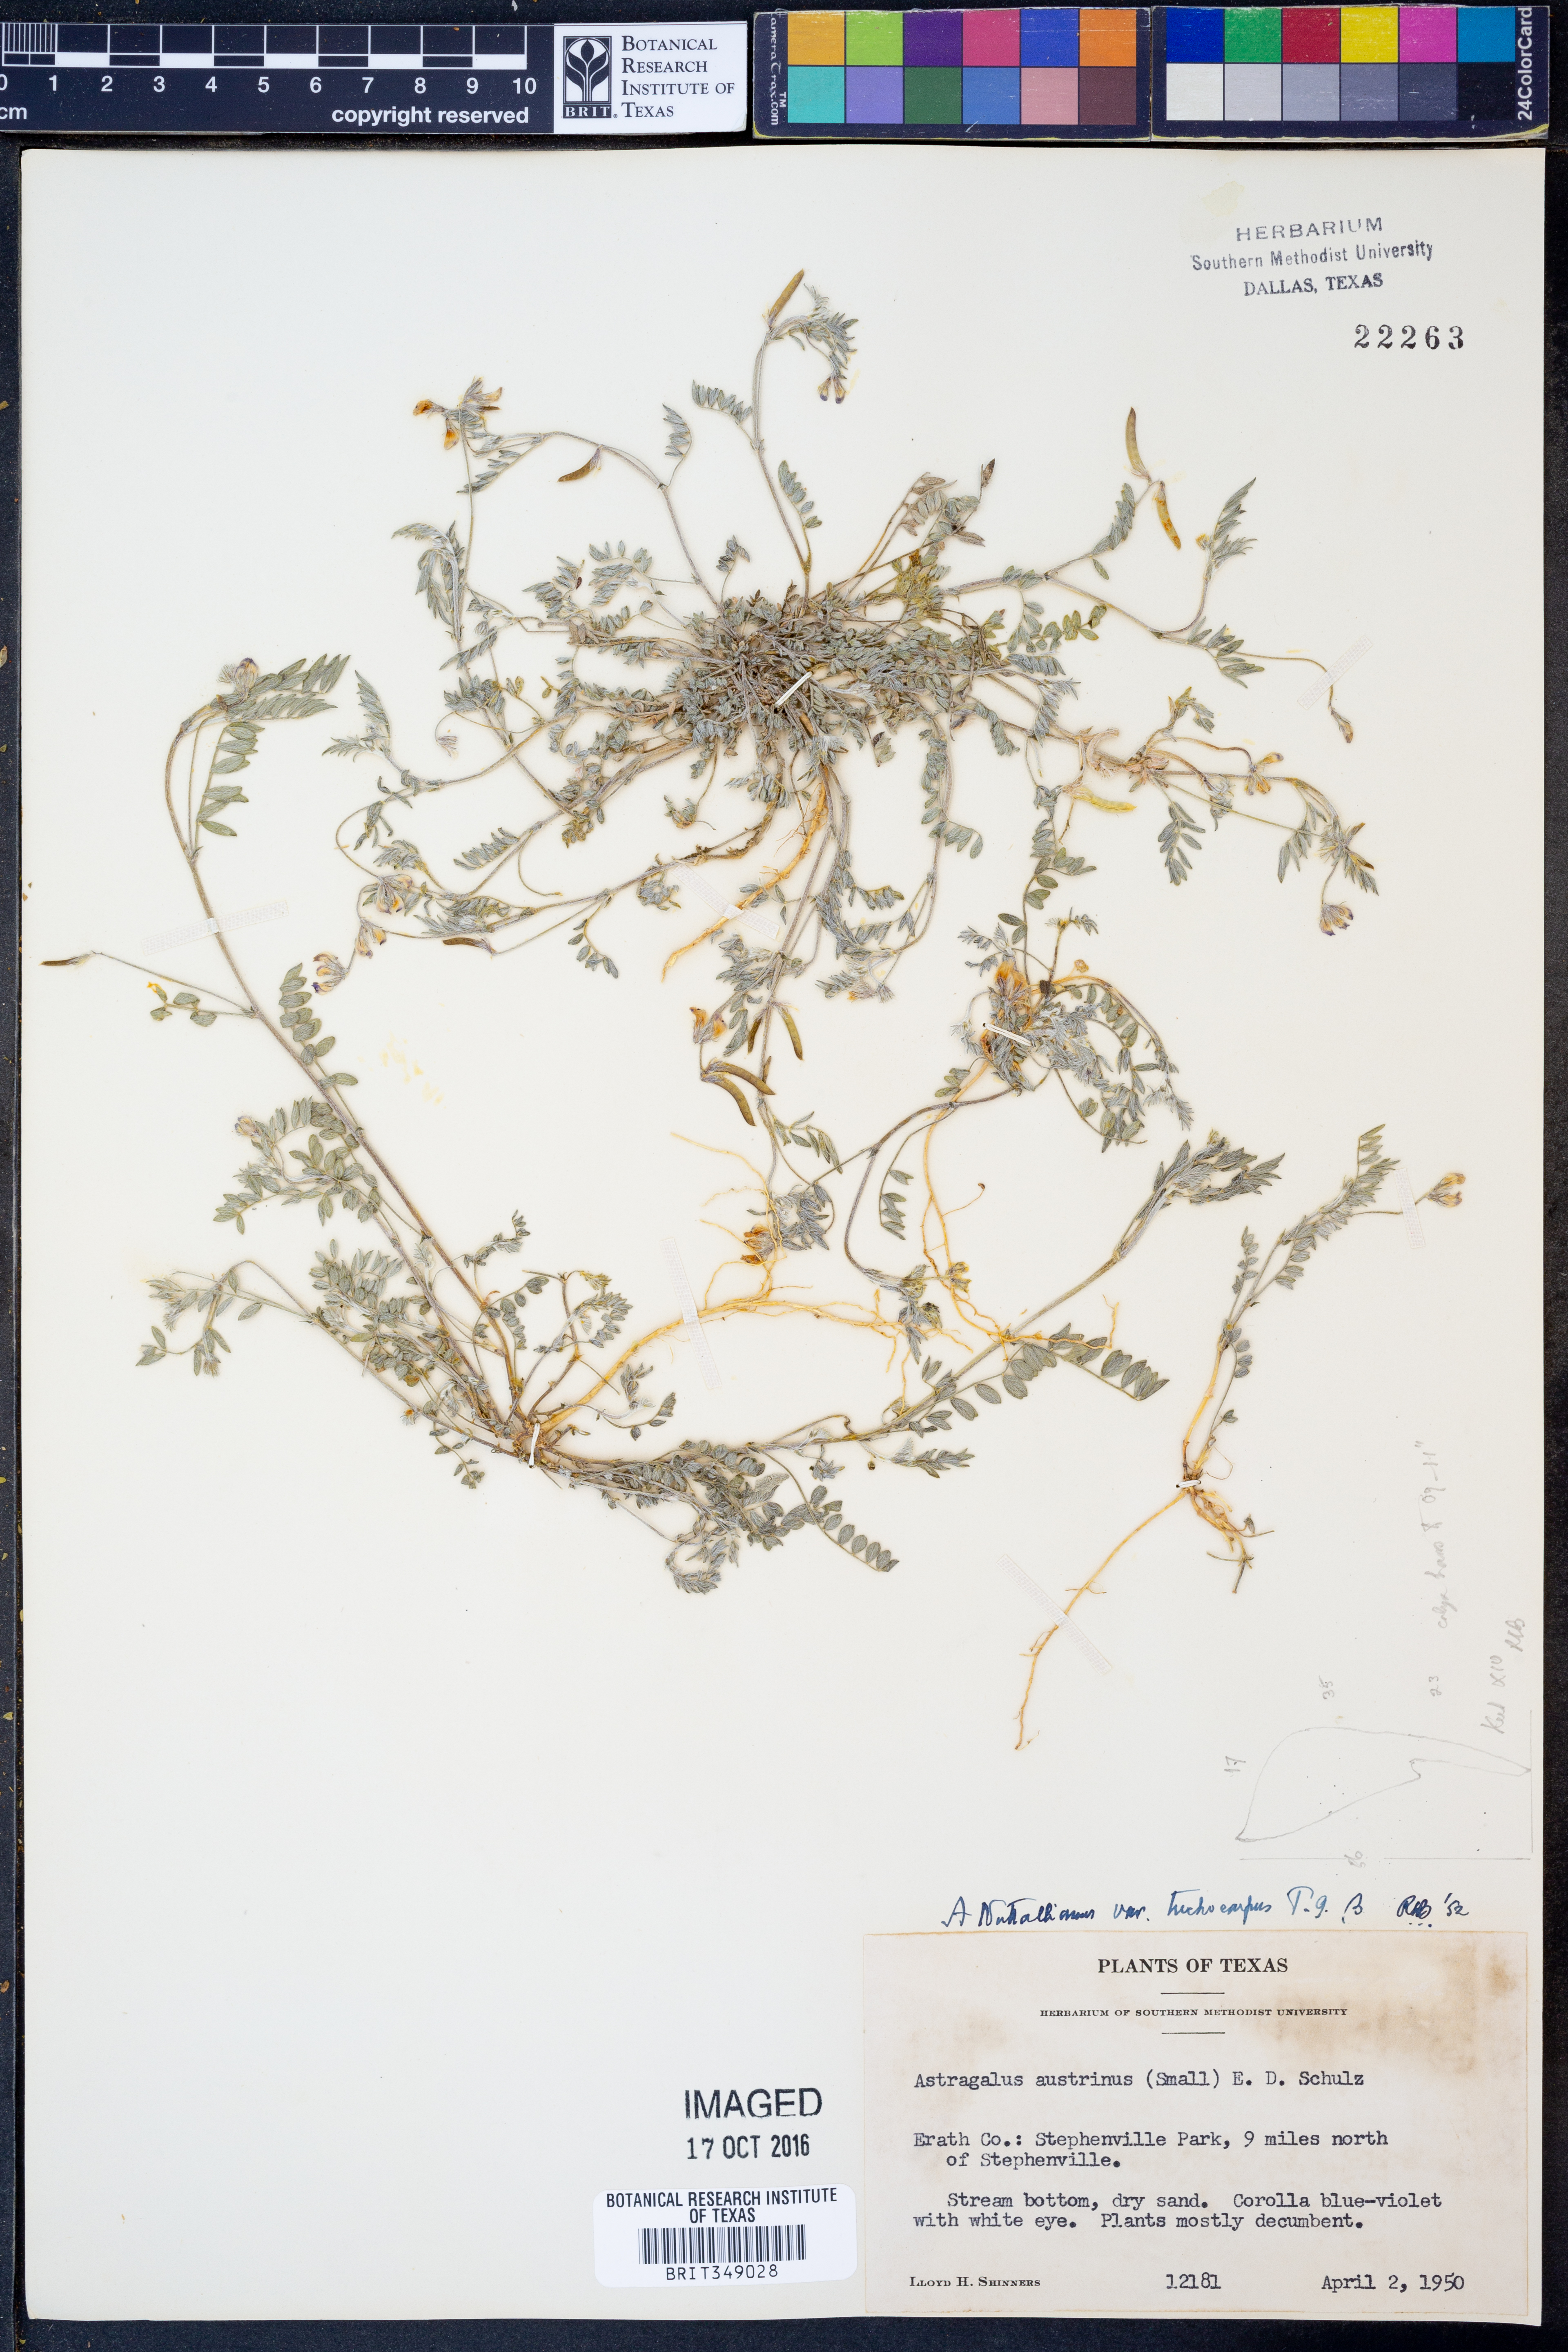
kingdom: Plantae
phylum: Tracheophyta
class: Magnoliopsida
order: Fabales
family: Fabaceae
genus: Astragalus
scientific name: Astragalus nuttallianus
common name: Smallflowered milkvetch
